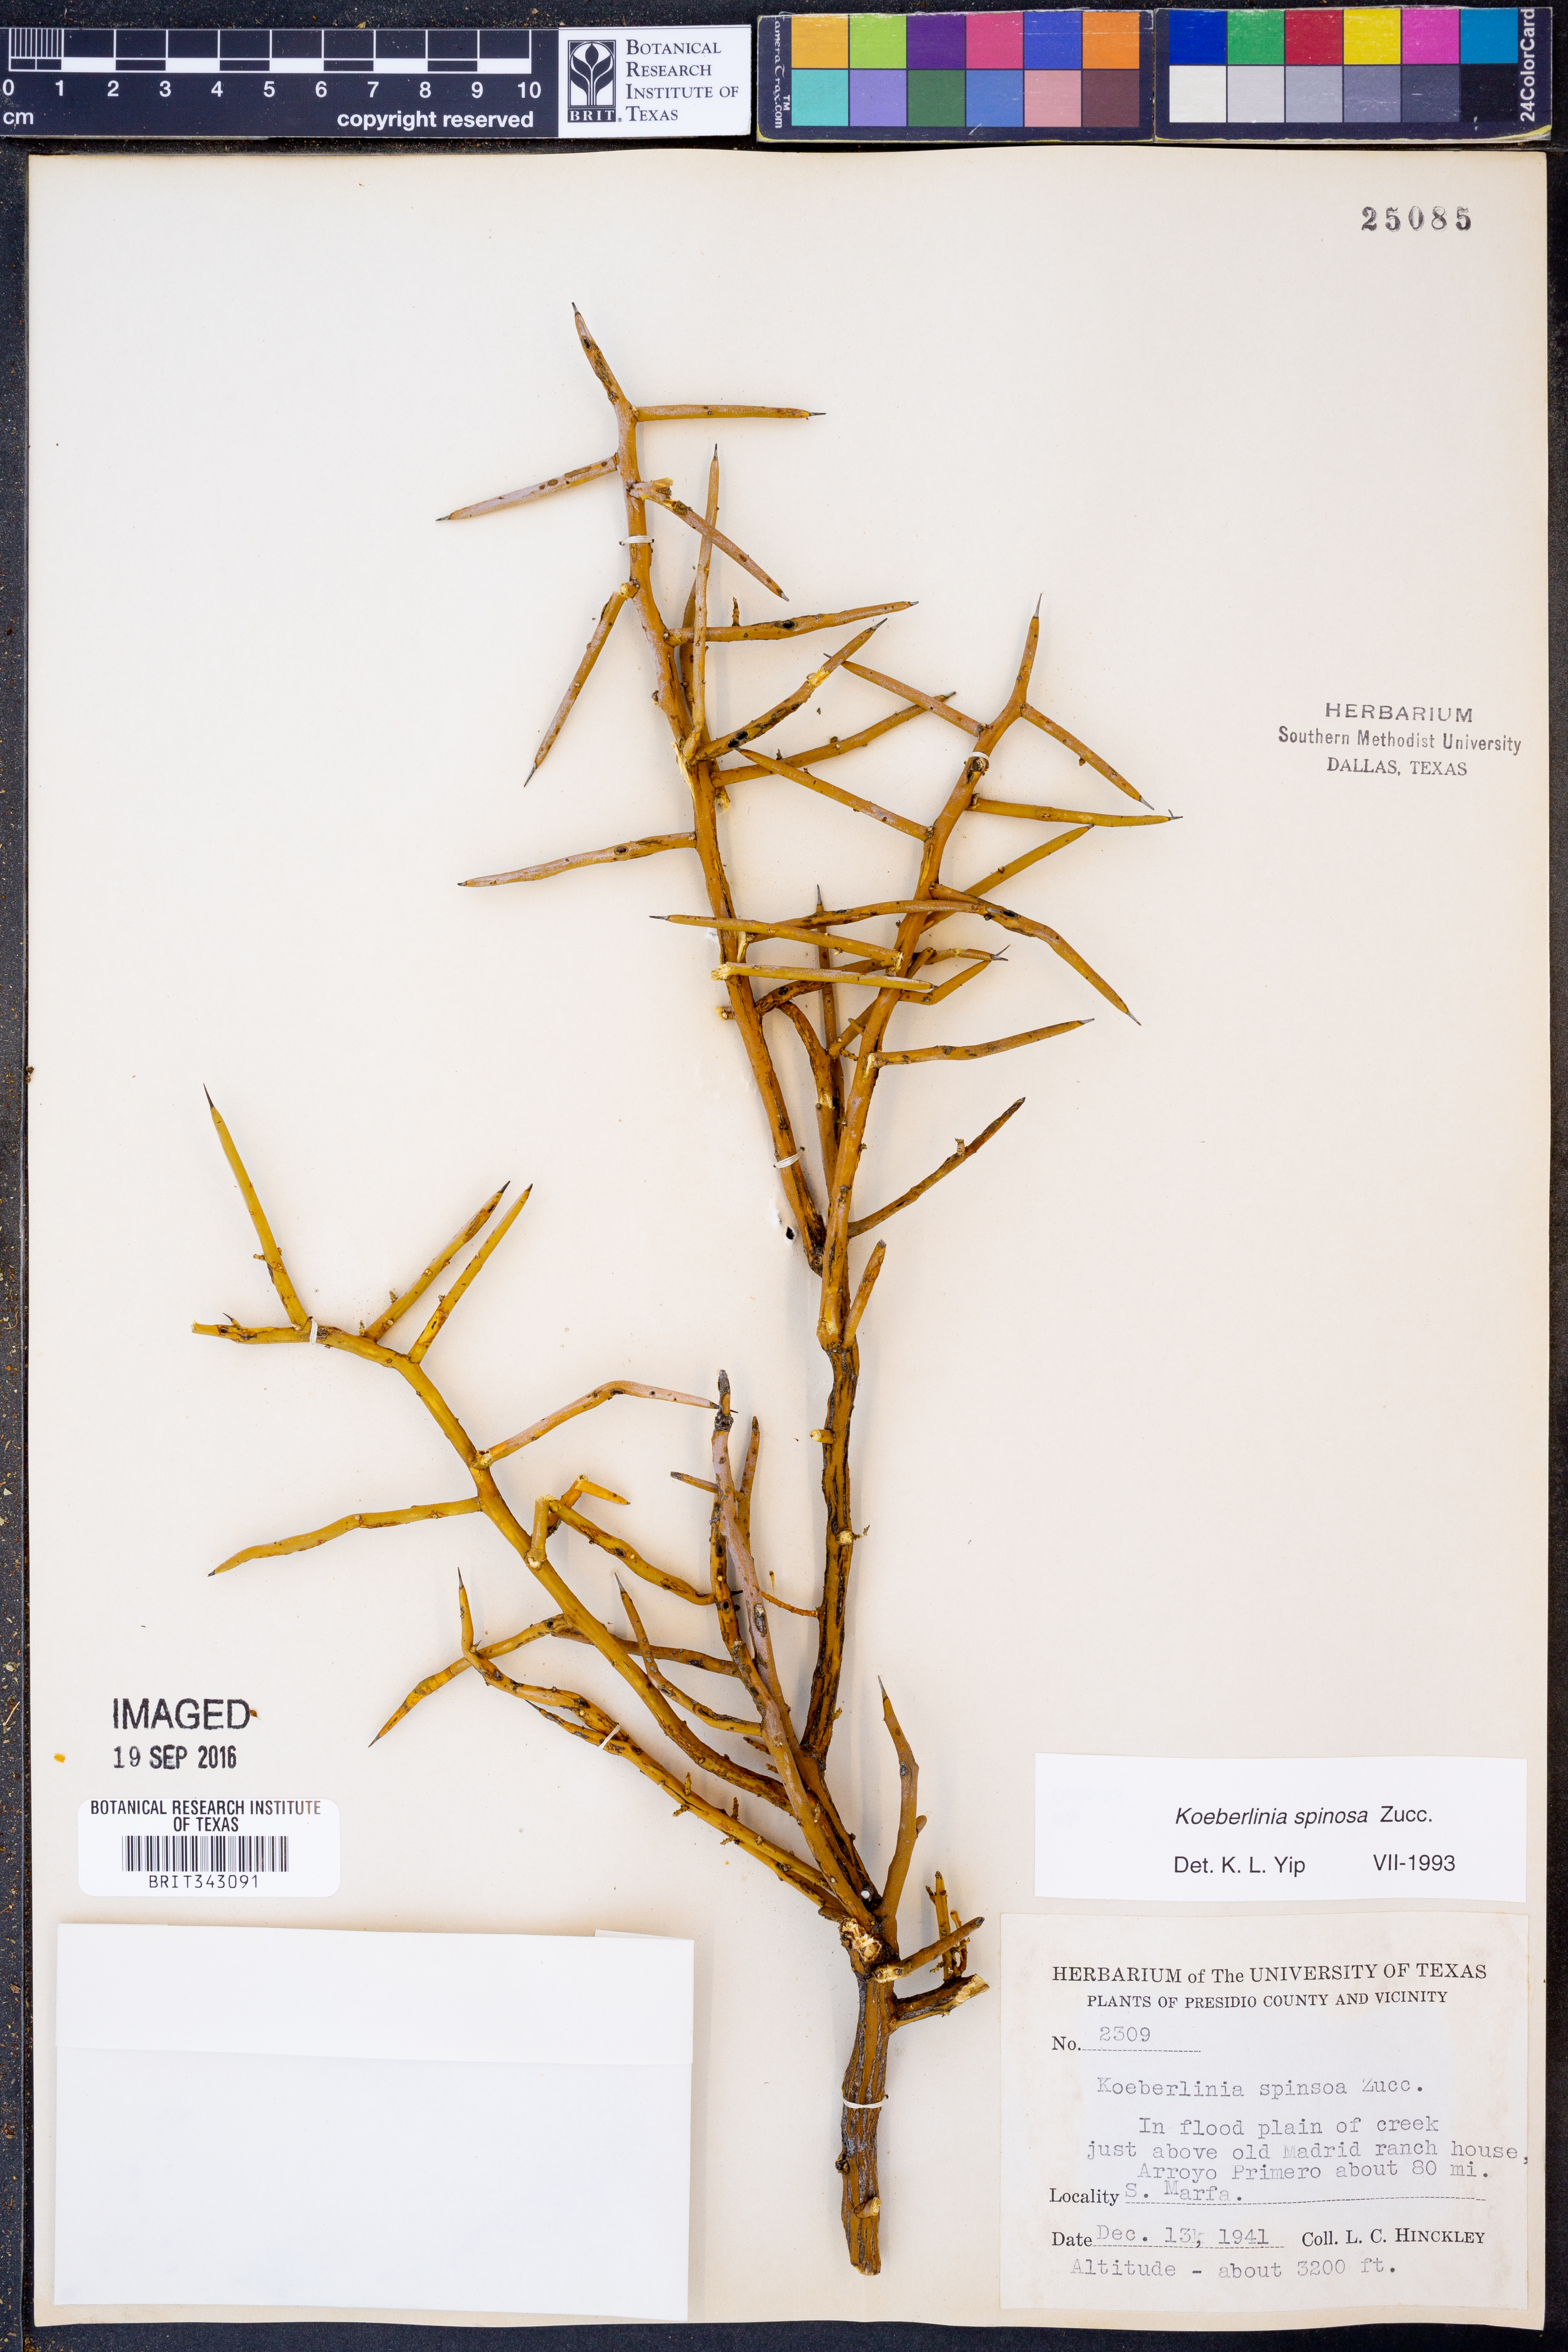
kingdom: Plantae
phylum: Tracheophyta
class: Magnoliopsida
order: Brassicales
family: Koeberliniaceae
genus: Koeberlinia
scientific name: Koeberlinia spinosa
